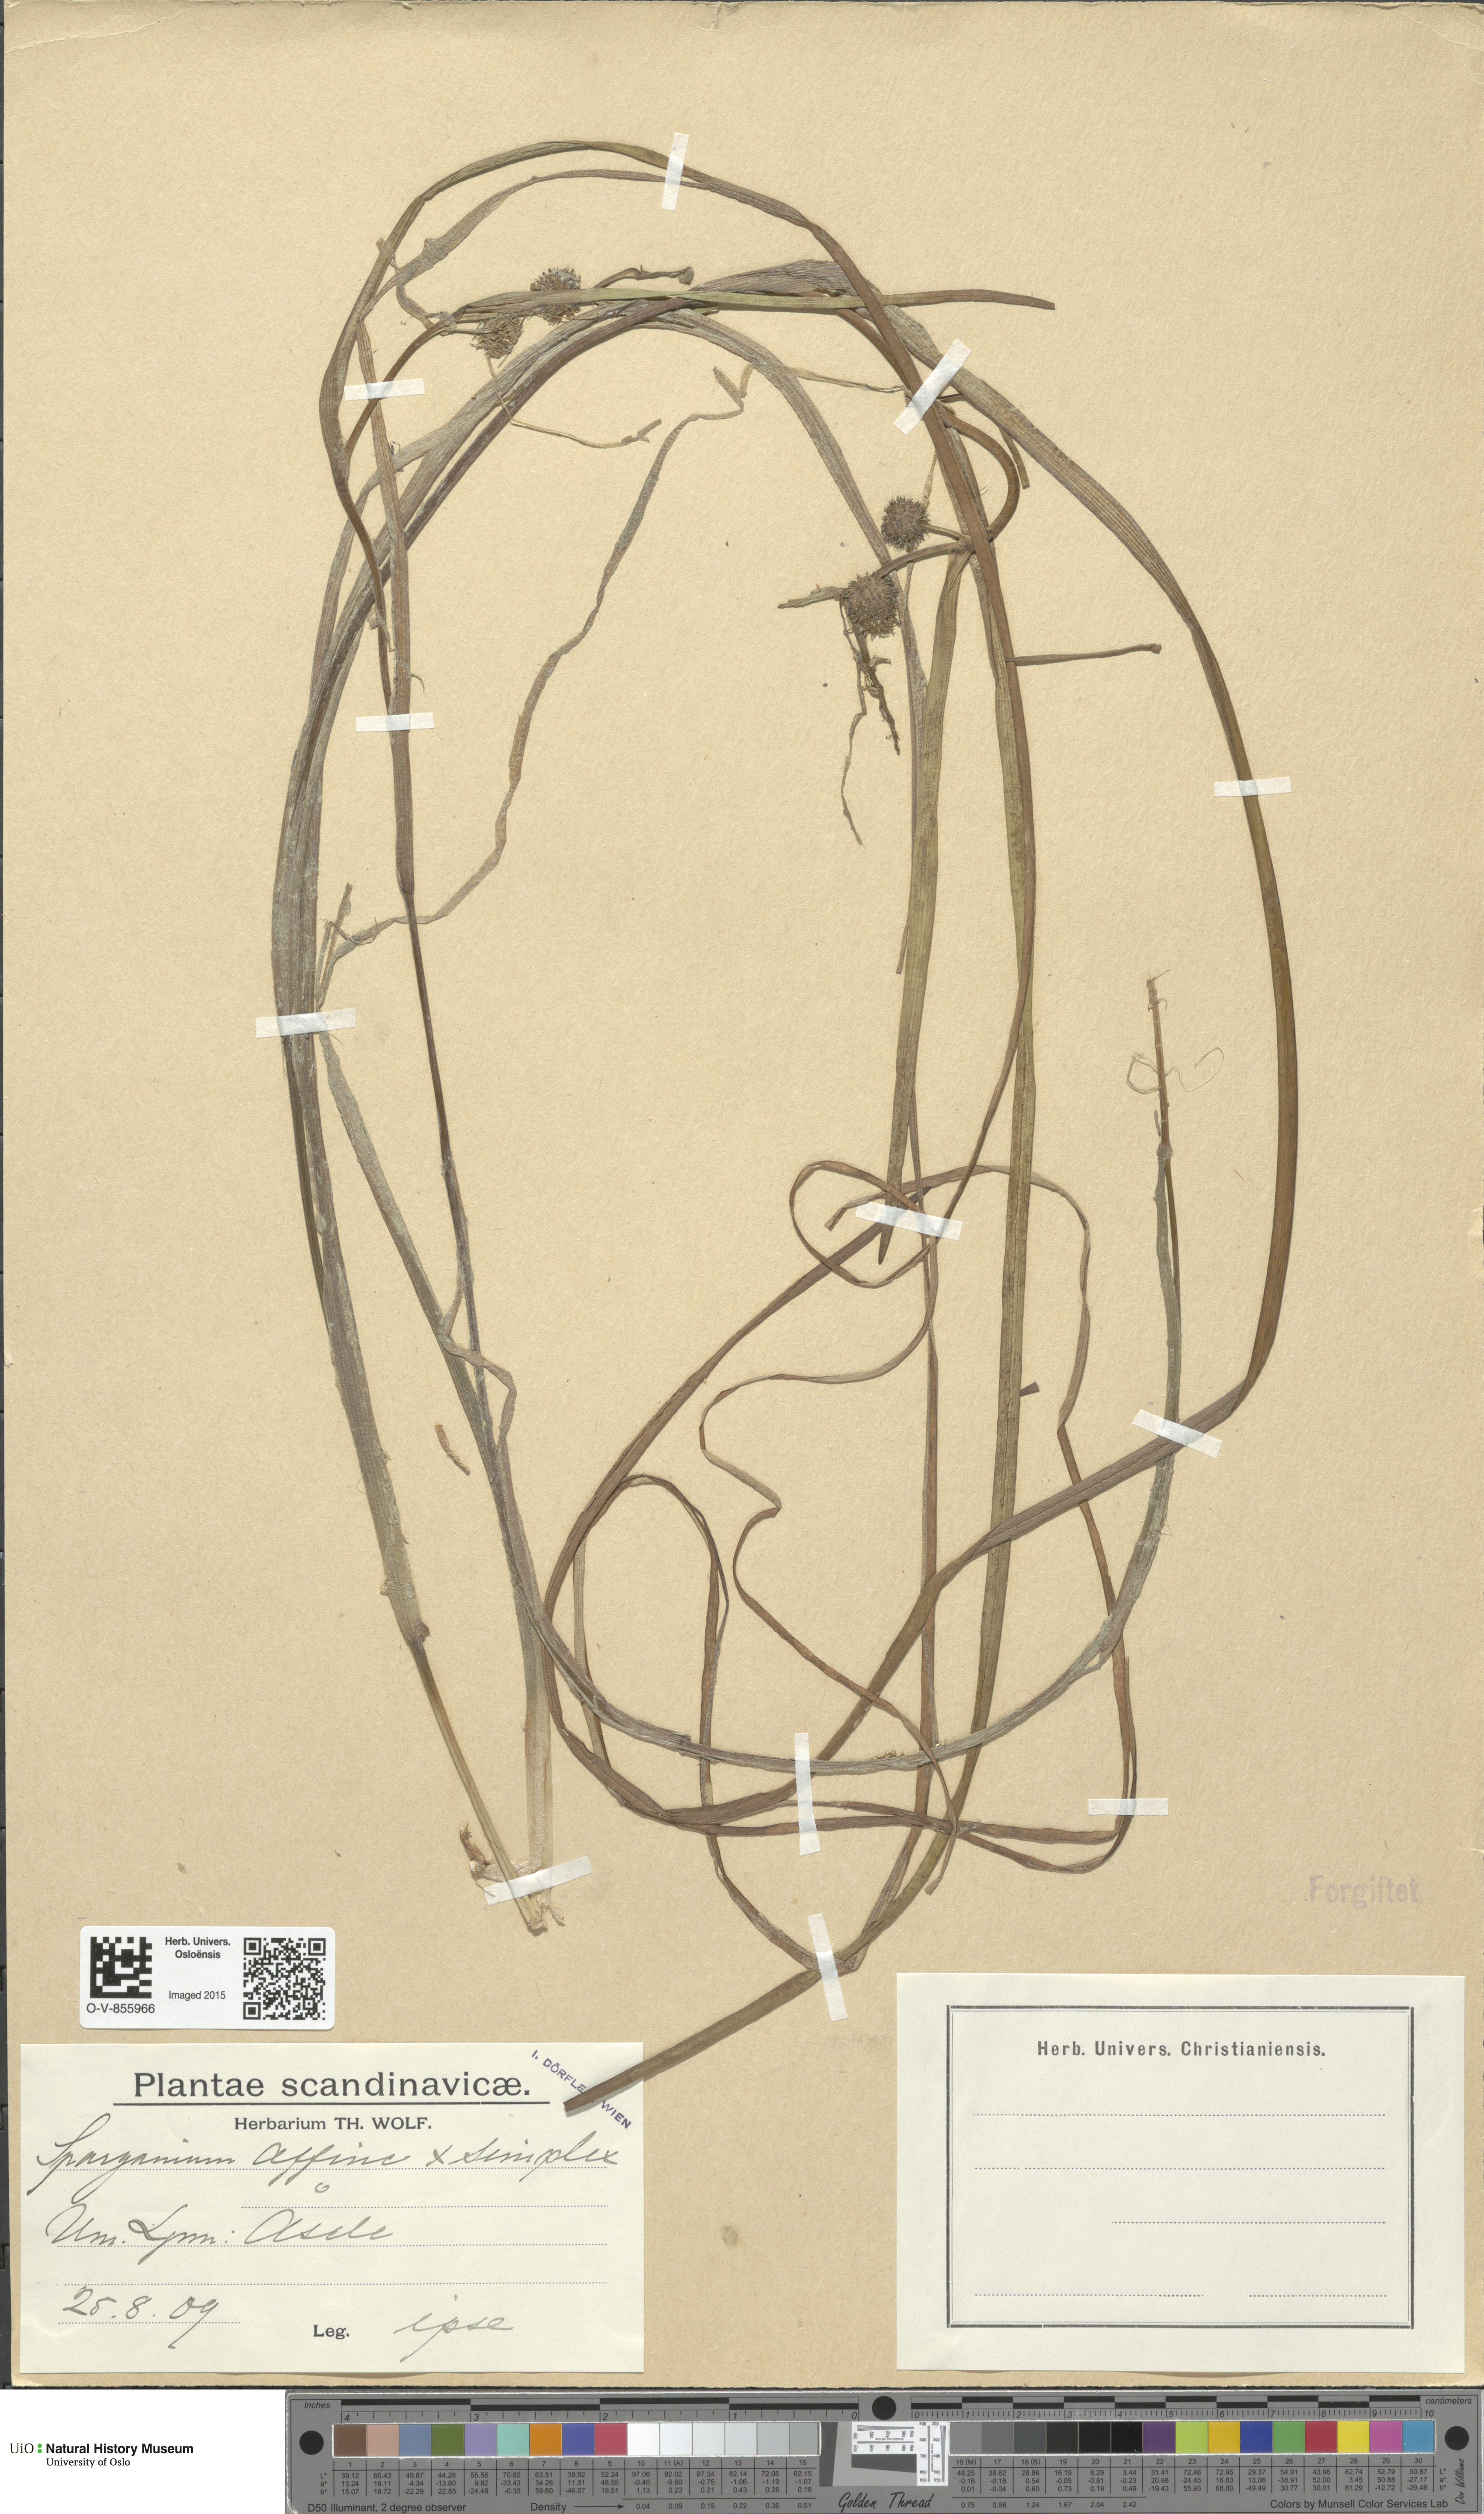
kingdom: Plantae
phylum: Tracheophyta
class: Liliopsida
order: Poales
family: Typhaceae
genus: Sparganium
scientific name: Sparganium
